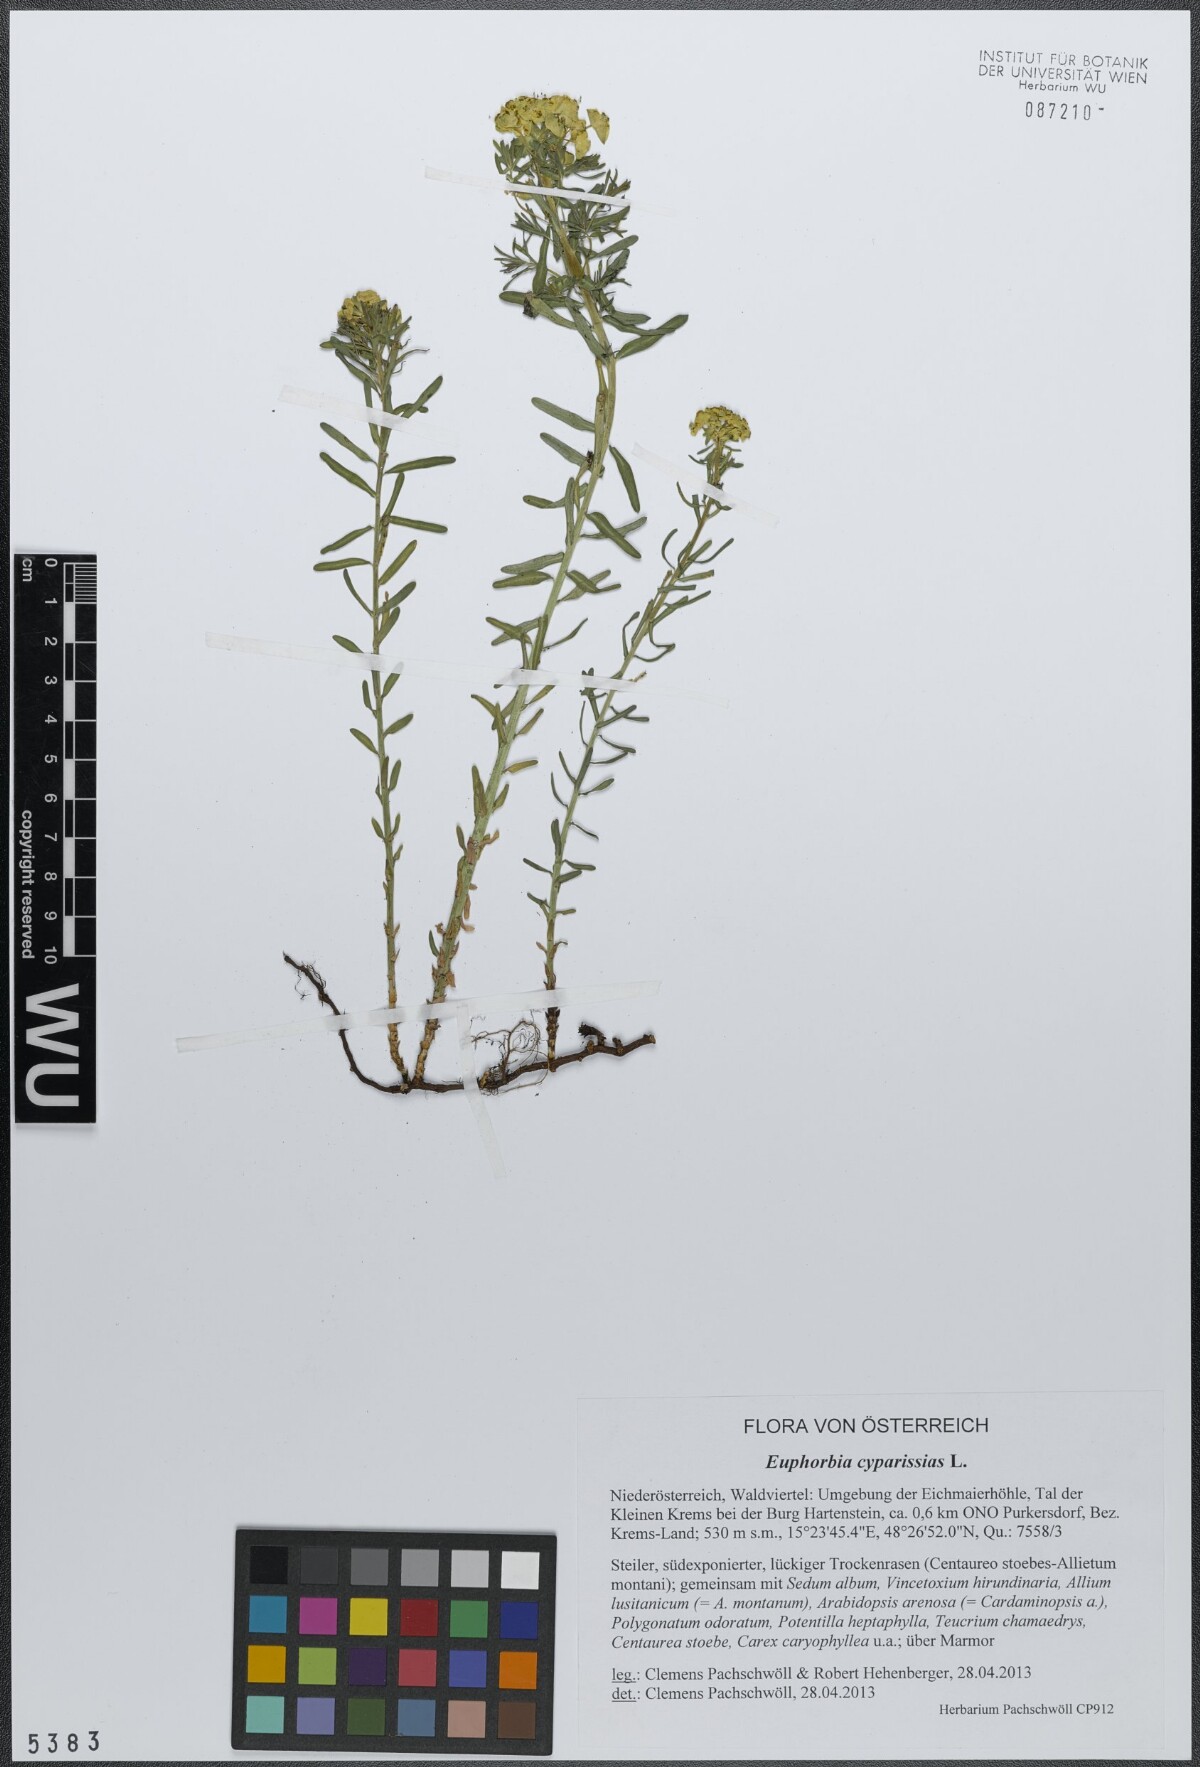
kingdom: Plantae
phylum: Tracheophyta
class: Magnoliopsida
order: Malpighiales
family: Euphorbiaceae
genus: Euphorbia
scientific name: Euphorbia cyparissias
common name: Cypress spurge
